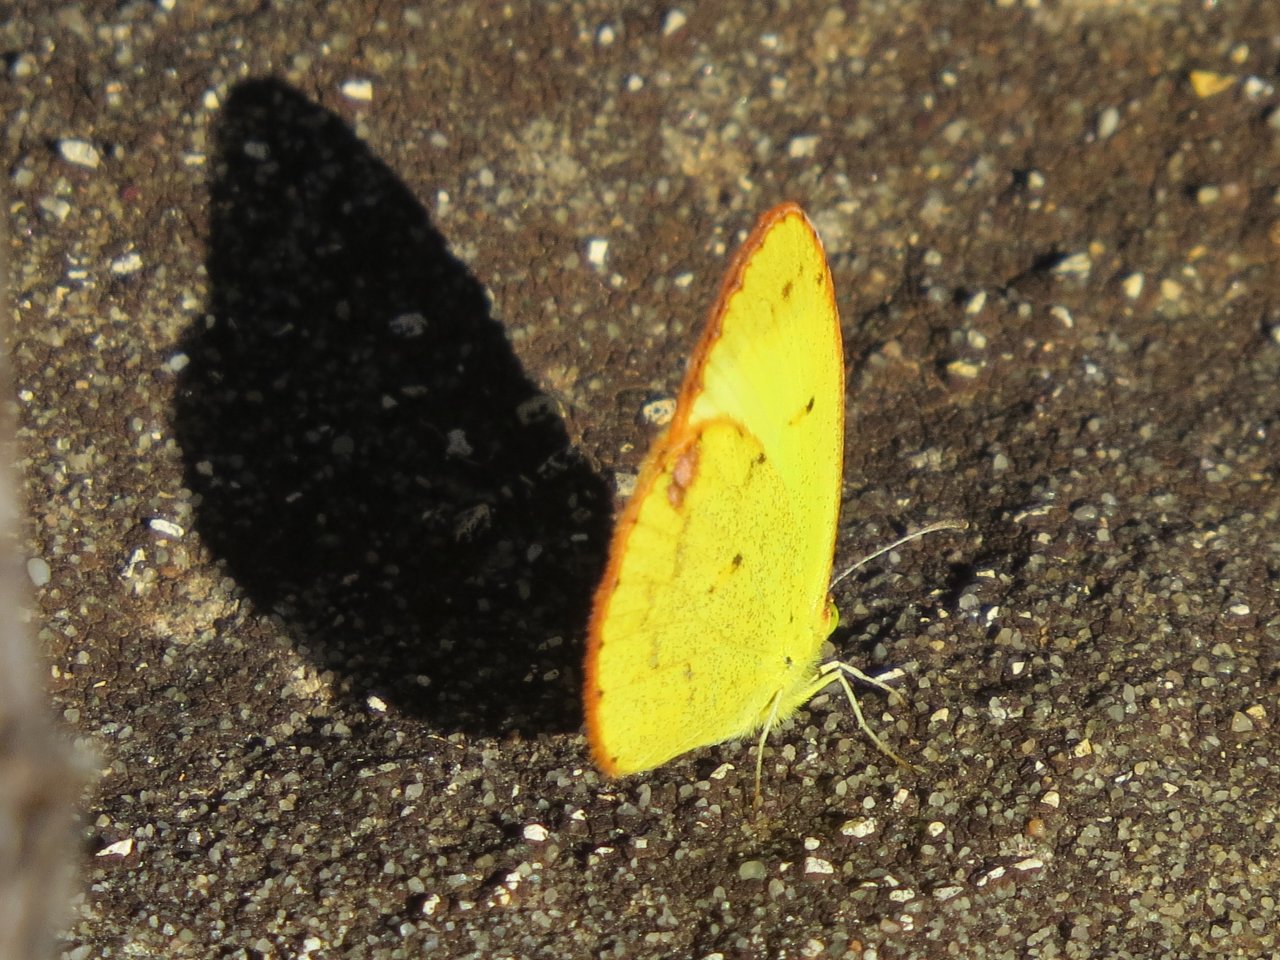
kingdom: Animalia
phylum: Arthropoda
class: Insecta
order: Lepidoptera
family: Pieridae
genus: Pyrisitia
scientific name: Pyrisitia lisa
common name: Little Yellow
